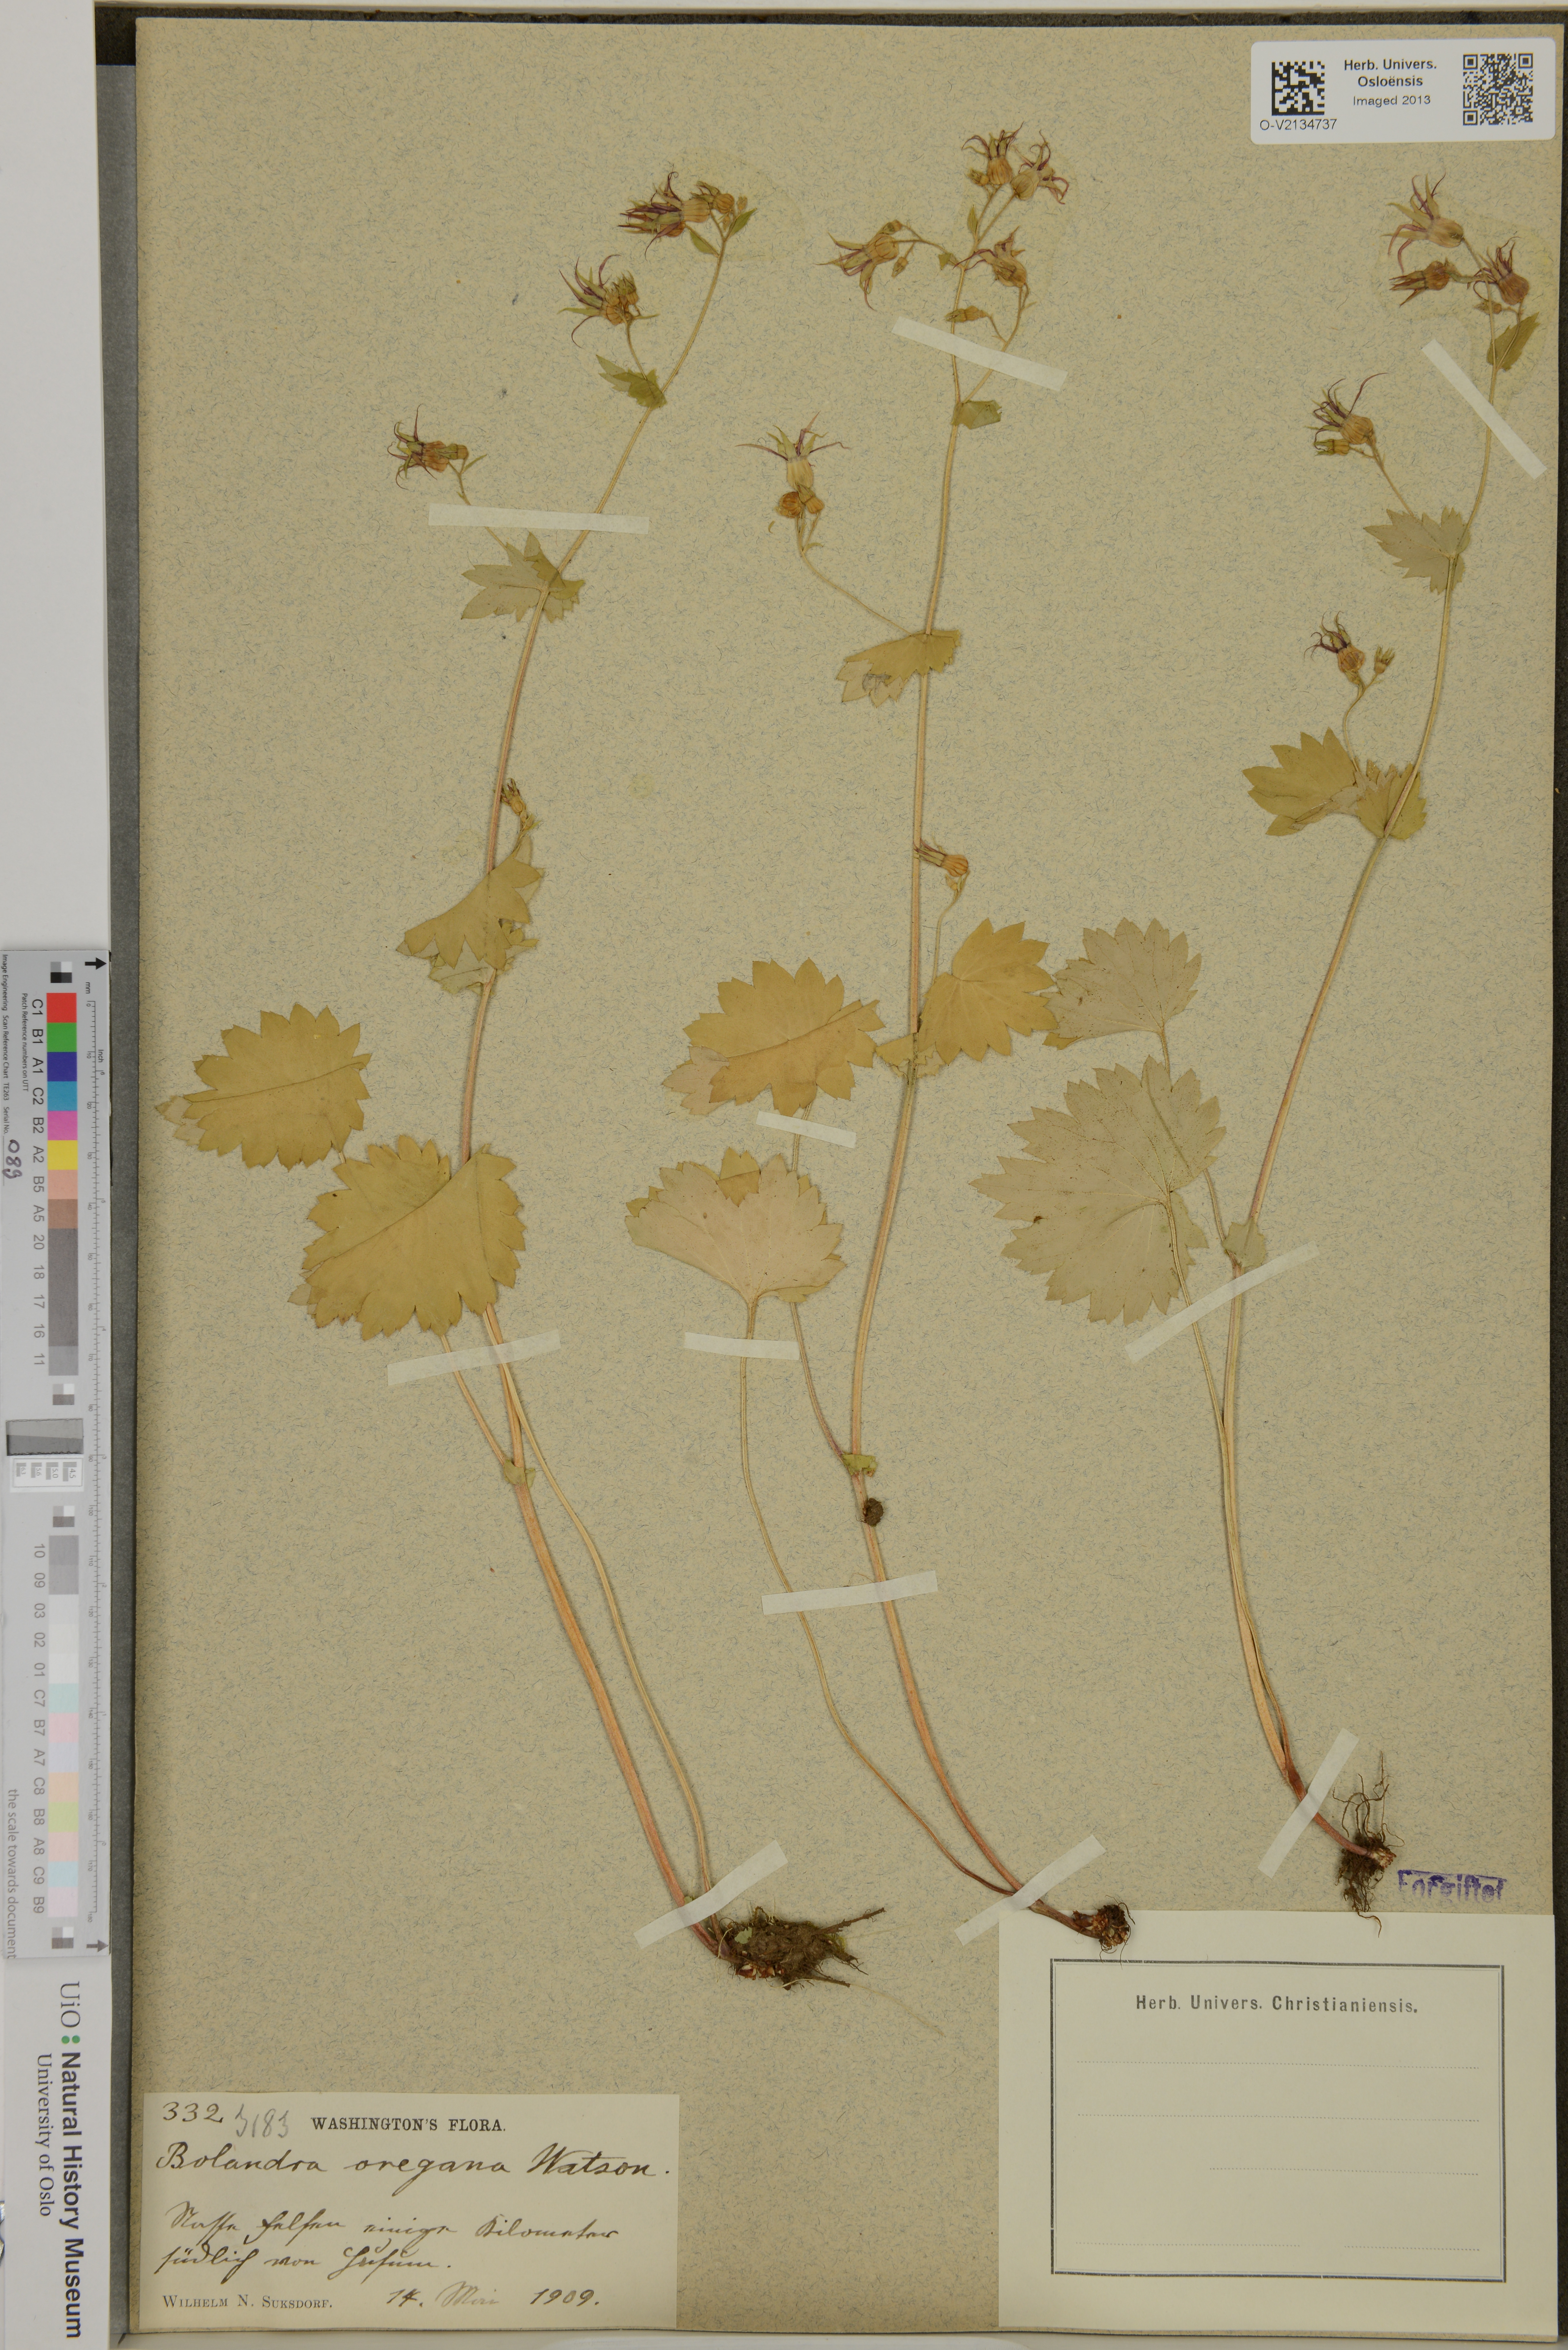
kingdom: Plantae
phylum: Tracheophyta
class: Magnoliopsida
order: Saxifragales
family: Saxifragaceae
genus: Bolandra
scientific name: Bolandra oregana
